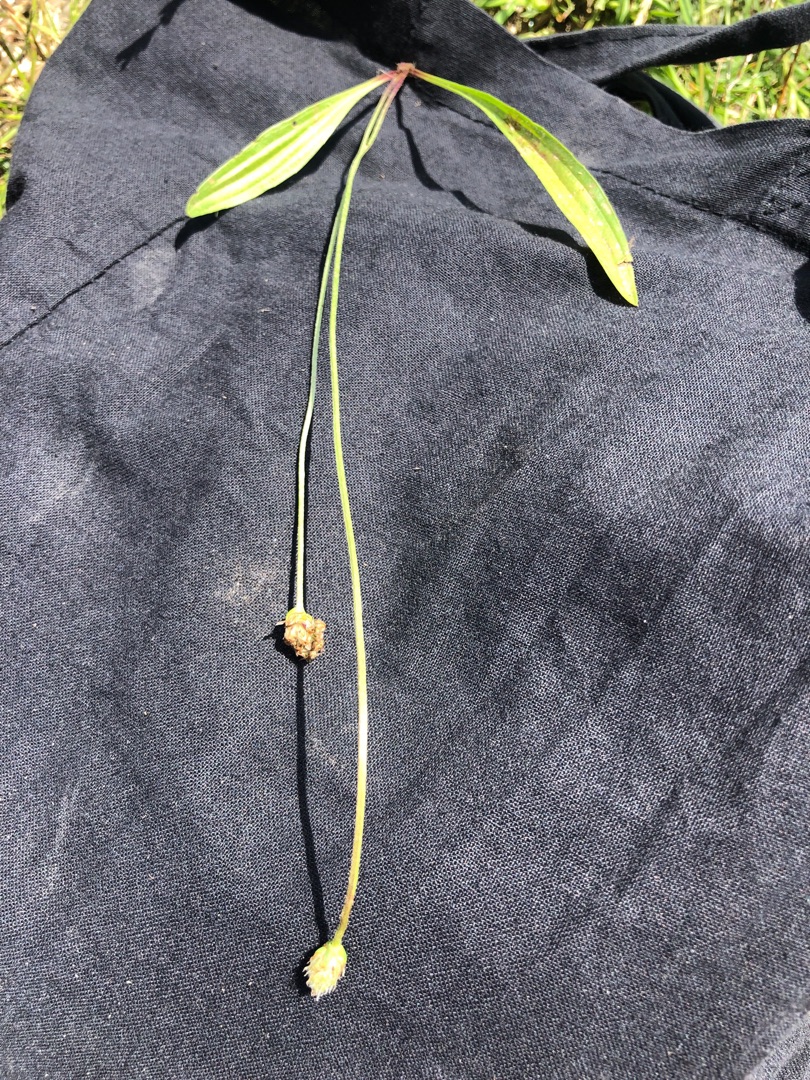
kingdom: Plantae
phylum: Tracheophyta
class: Magnoliopsida
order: Lamiales
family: Plantaginaceae
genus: Plantago
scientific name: Plantago lanceolata
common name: Lancet-vejbred
